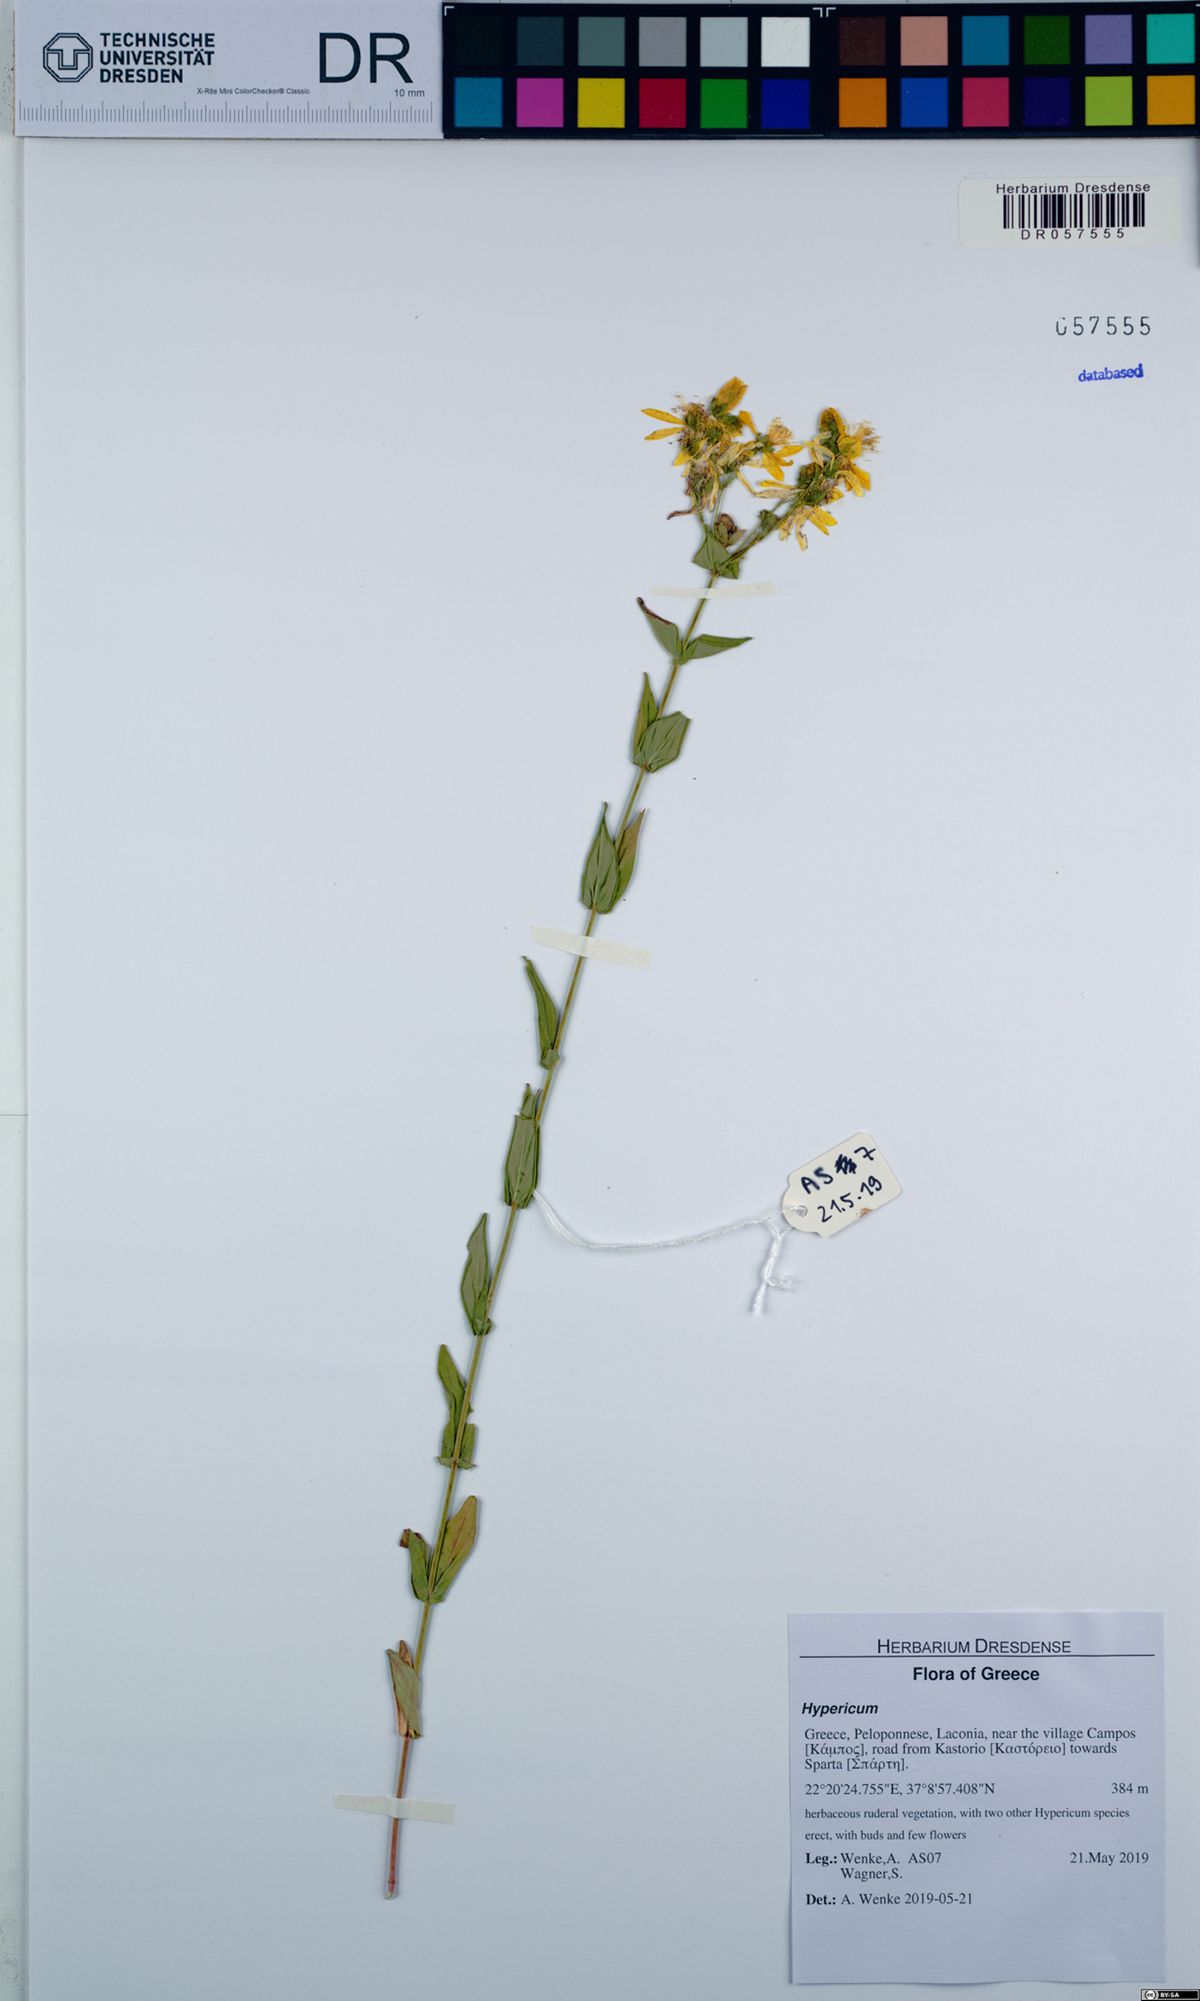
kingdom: Plantae
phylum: Tracheophyta
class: Magnoliopsida
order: Malpighiales
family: Hypericaceae
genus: Hypericum
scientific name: Hypericum perfoliatum
